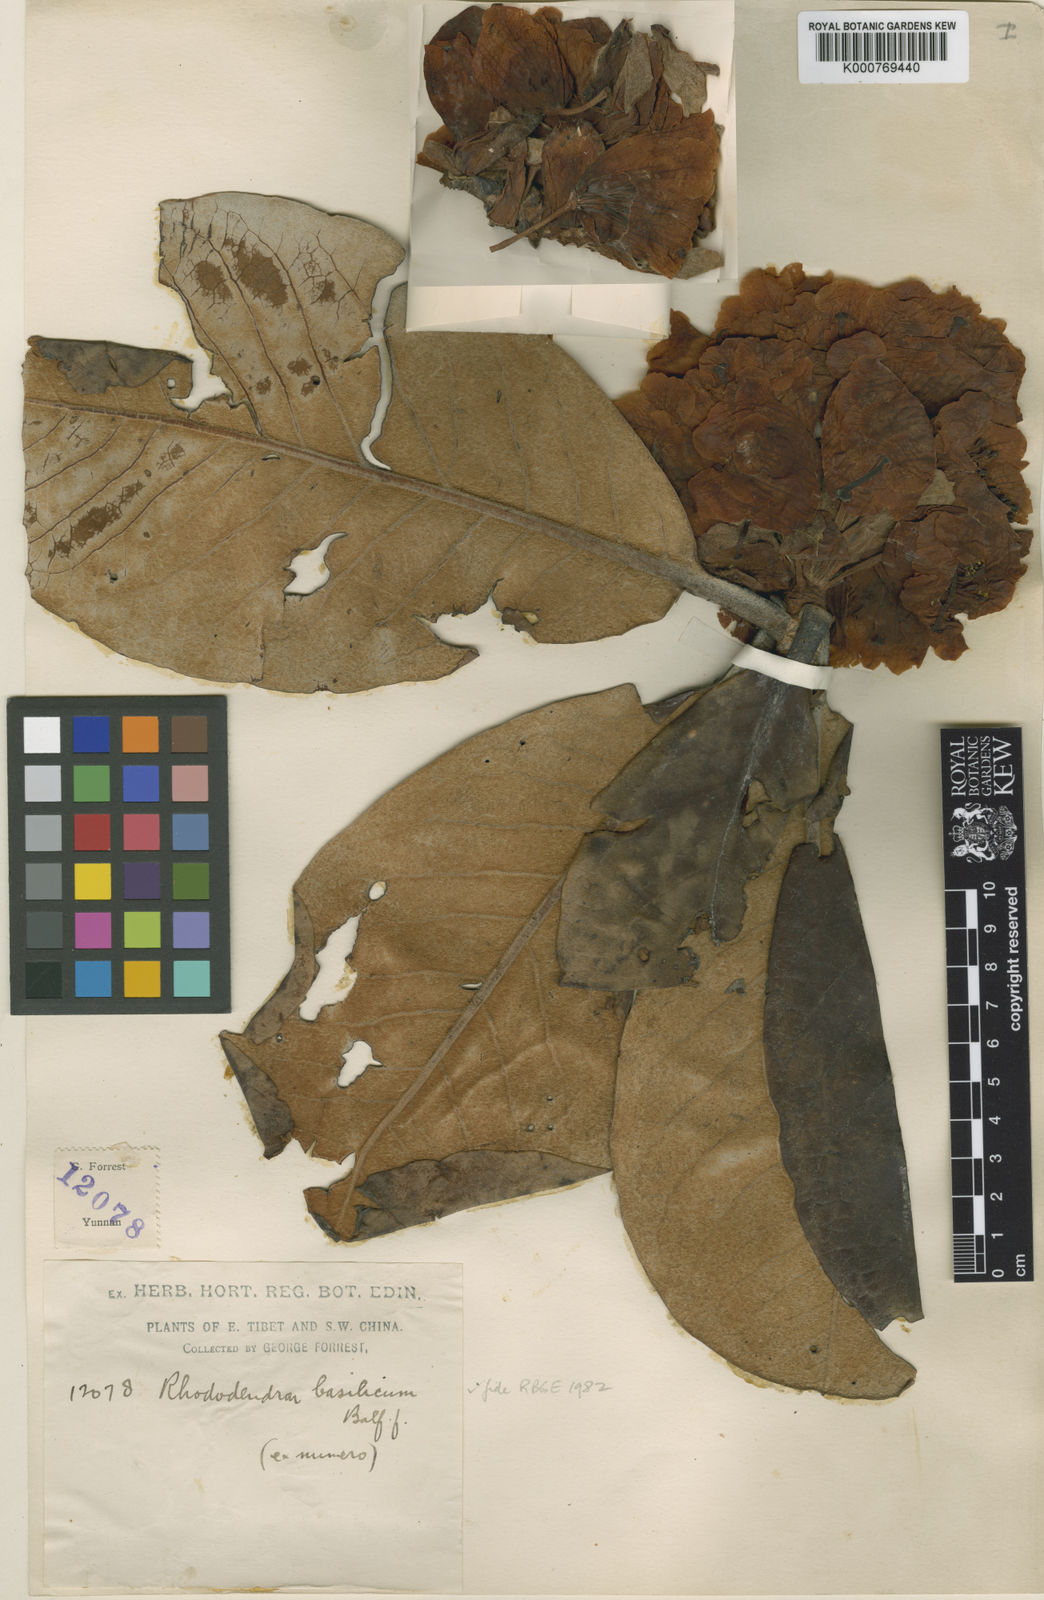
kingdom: Plantae
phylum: Tracheophyta
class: Magnoliopsida
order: Ericales
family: Ericaceae
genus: Rhododendron
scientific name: Rhododendron basilicum
